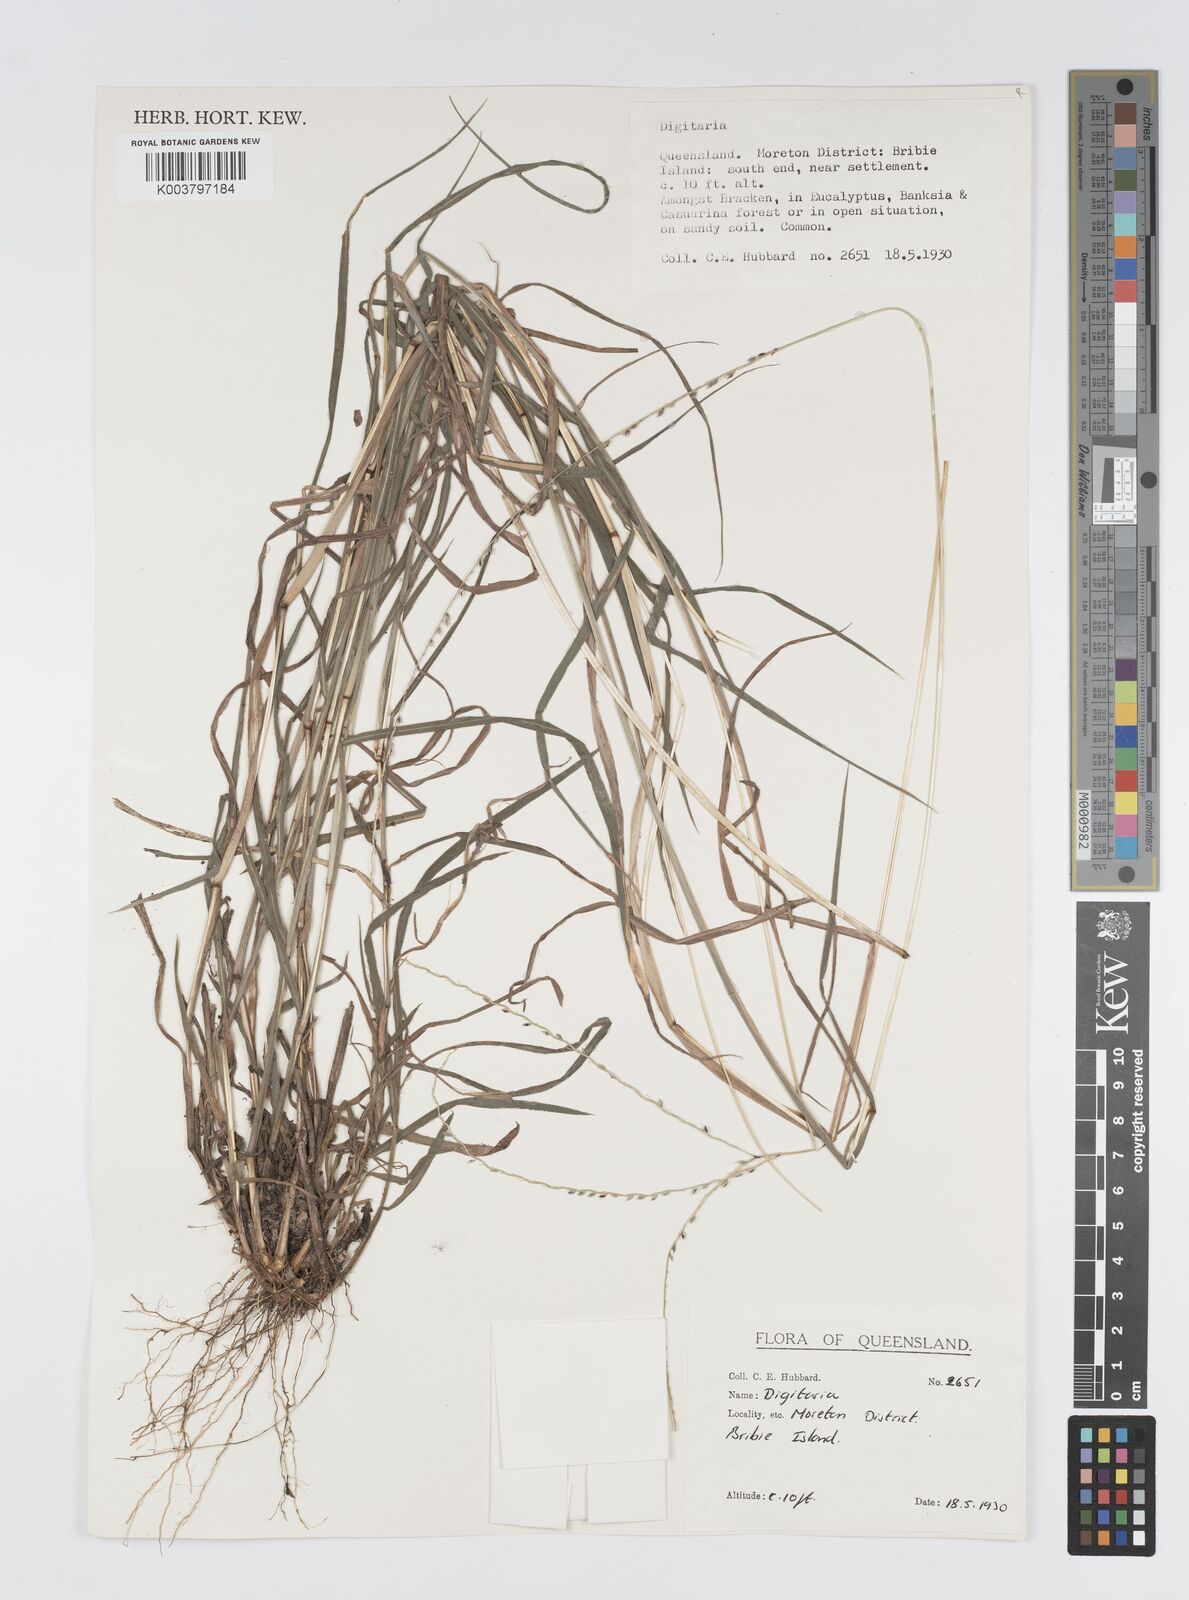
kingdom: Plantae
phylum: Tracheophyta
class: Liliopsida
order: Poales
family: Poaceae
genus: Digitaria
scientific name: Digitaria spec
